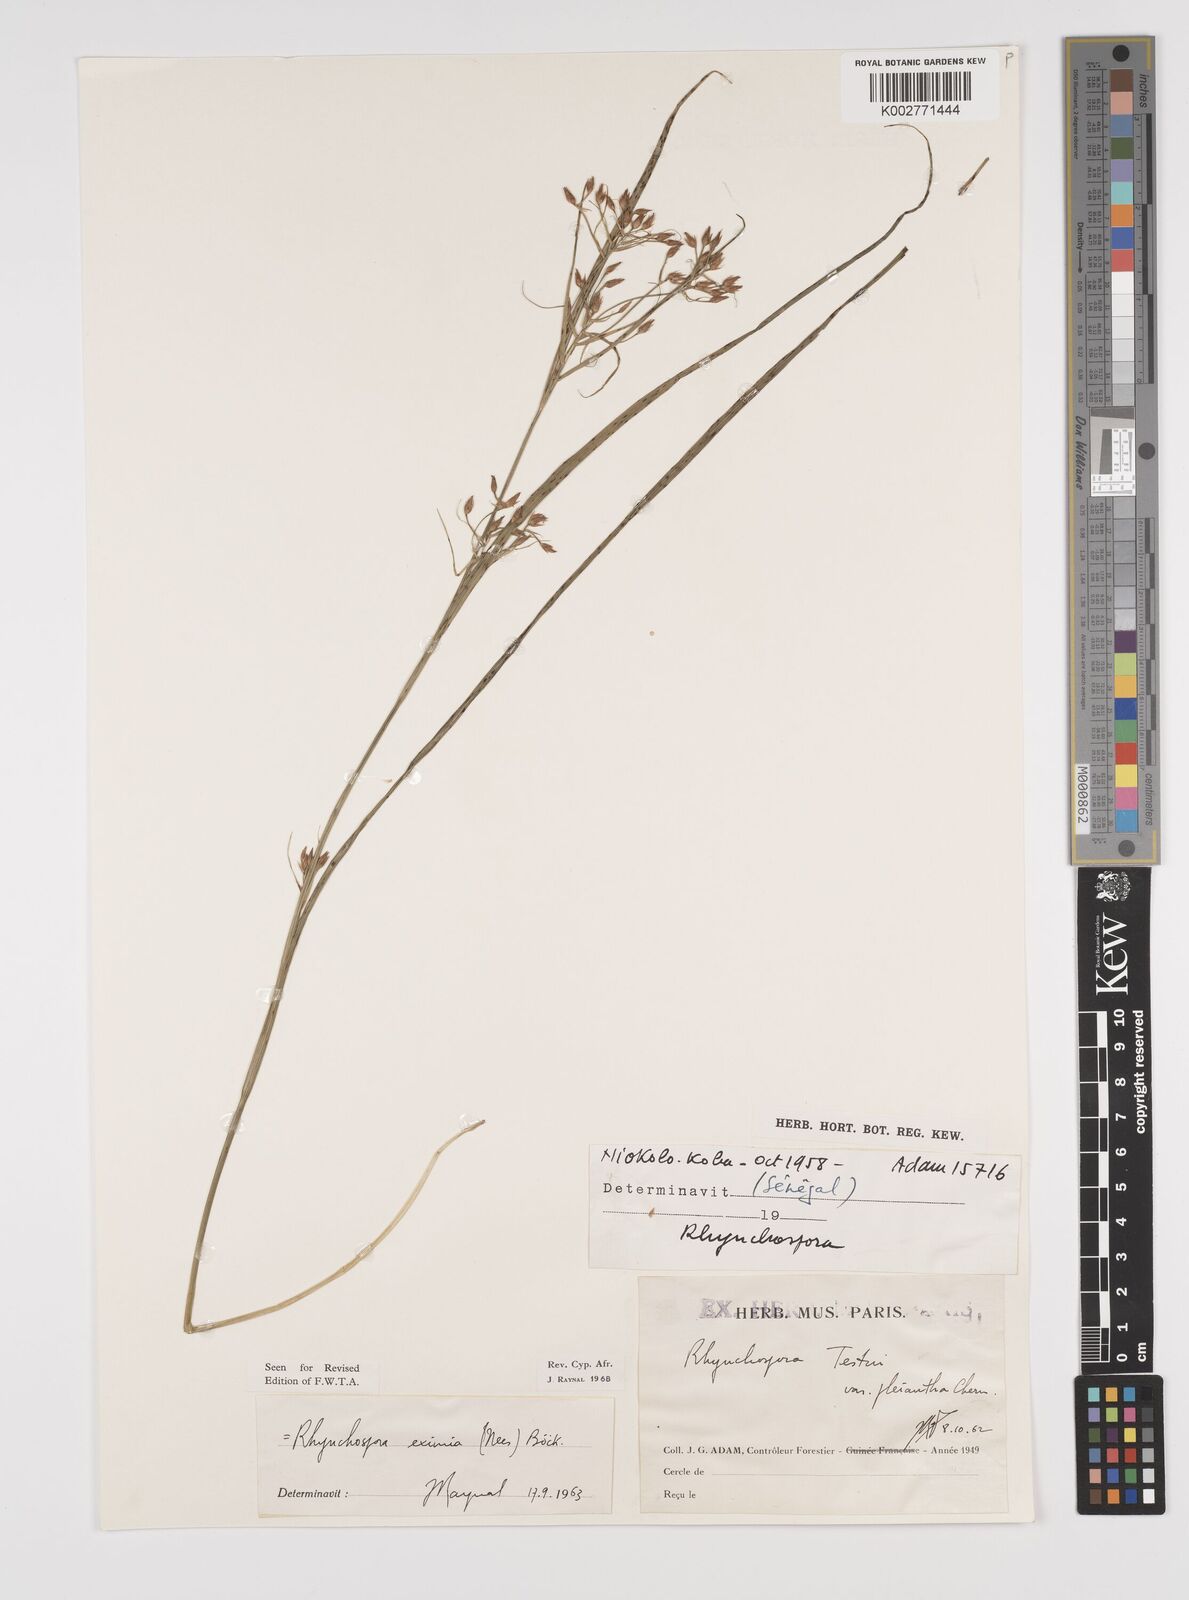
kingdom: Plantae
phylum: Tracheophyta
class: Liliopsida
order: Poales
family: Cyperaceae
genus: Rhynchospora
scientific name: Rhynchospora eximia
